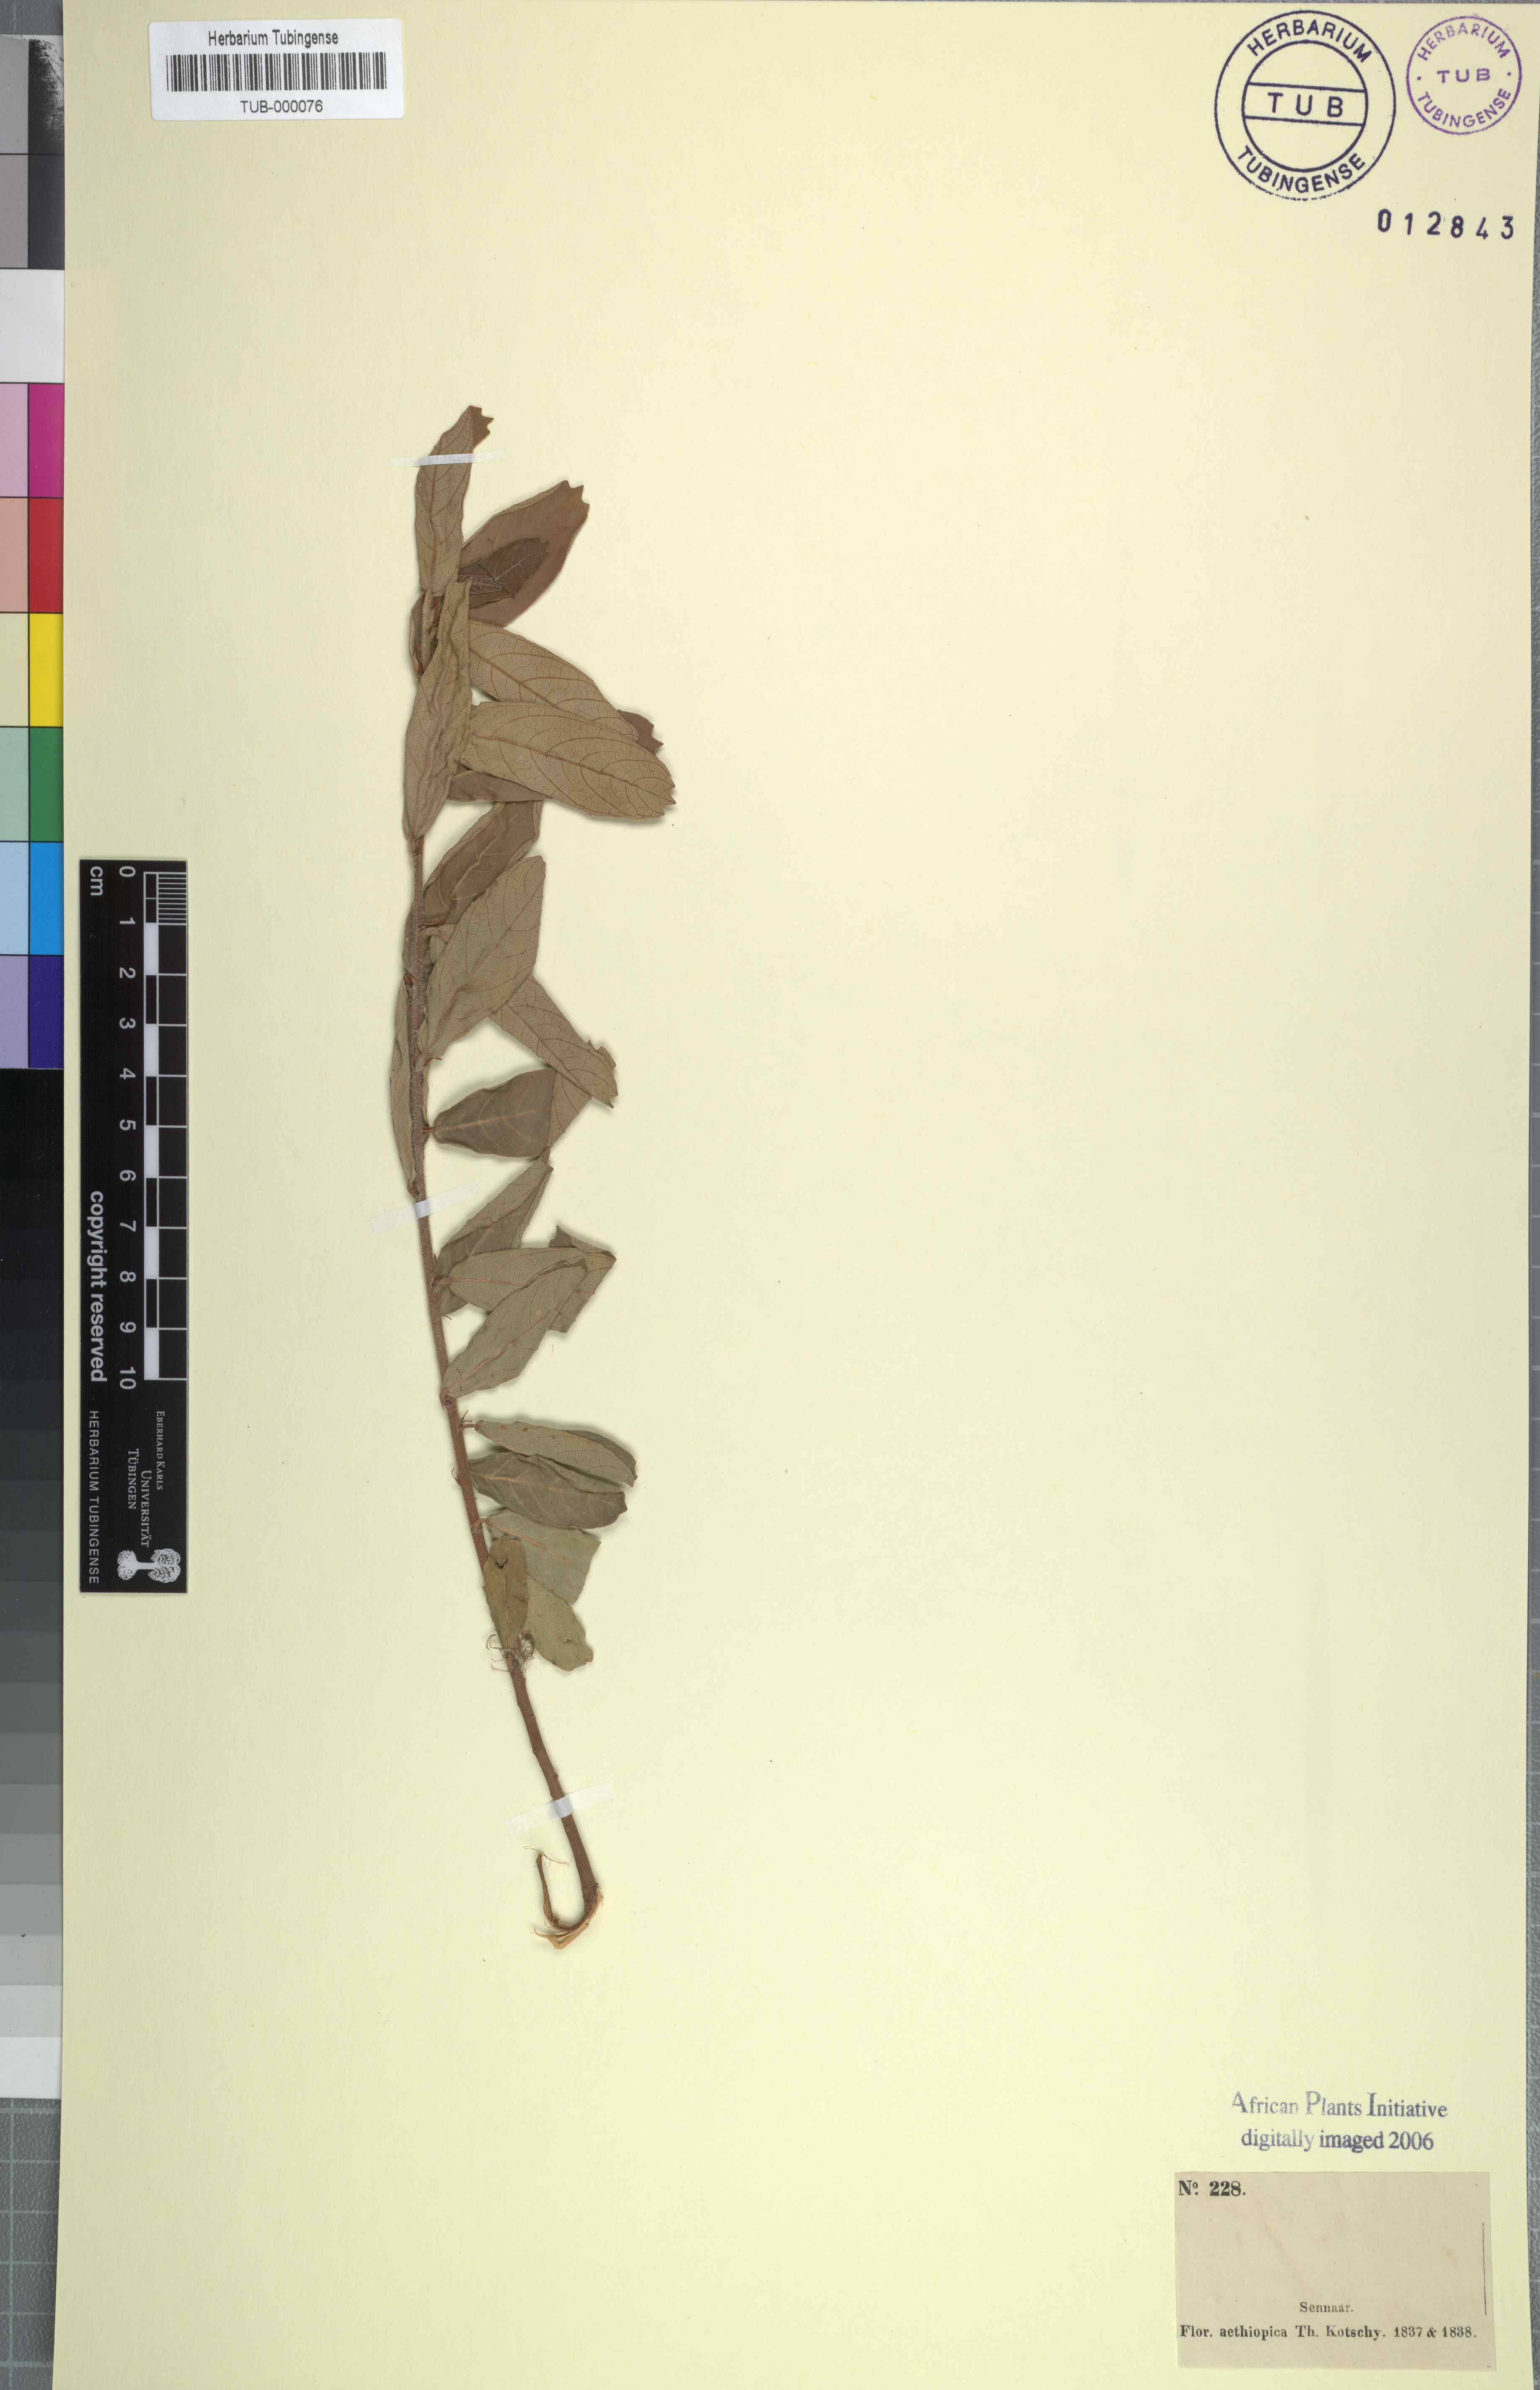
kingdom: Plantae
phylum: Tracheophyta
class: Magnoliopsida
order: Rosales
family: Moraceae
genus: Ficus
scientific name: Ficus capreifolia
